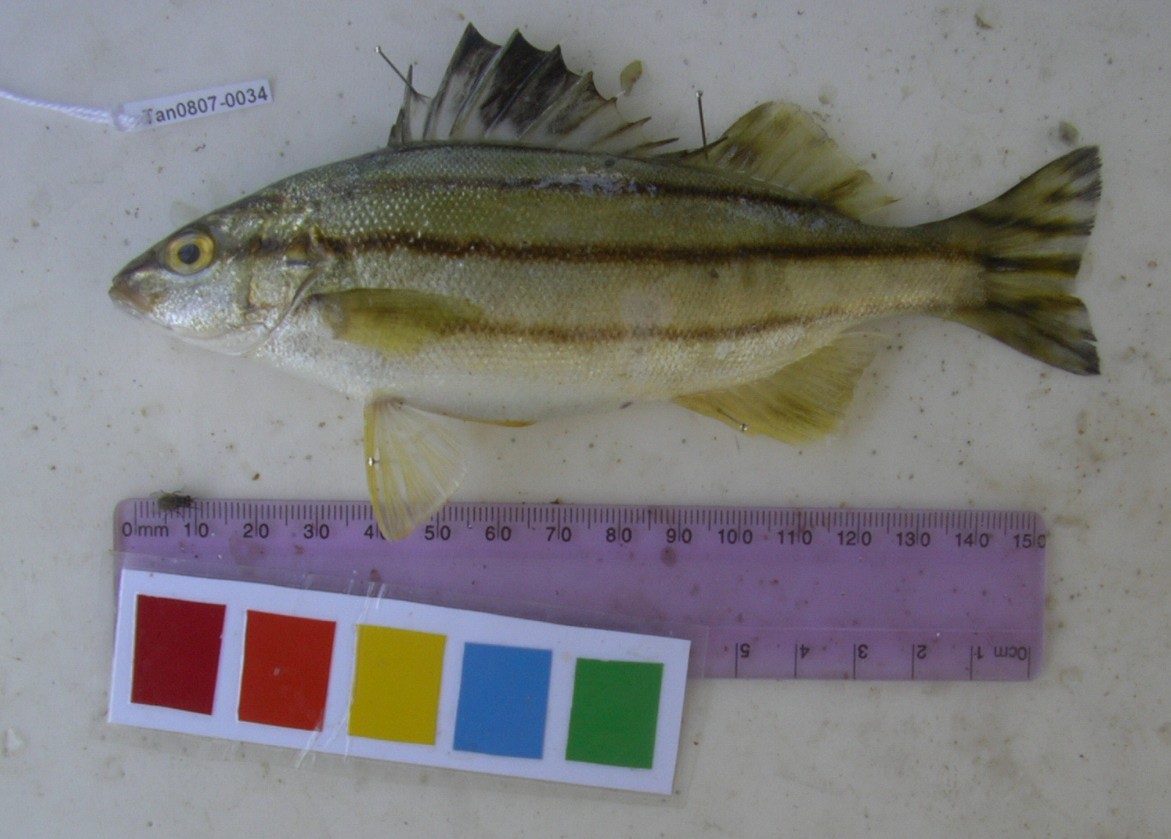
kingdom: Animalia
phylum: Chordata
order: Perciformes
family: Terapontidae
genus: Terapon
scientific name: Terapon theraps
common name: Largescaled therapon
